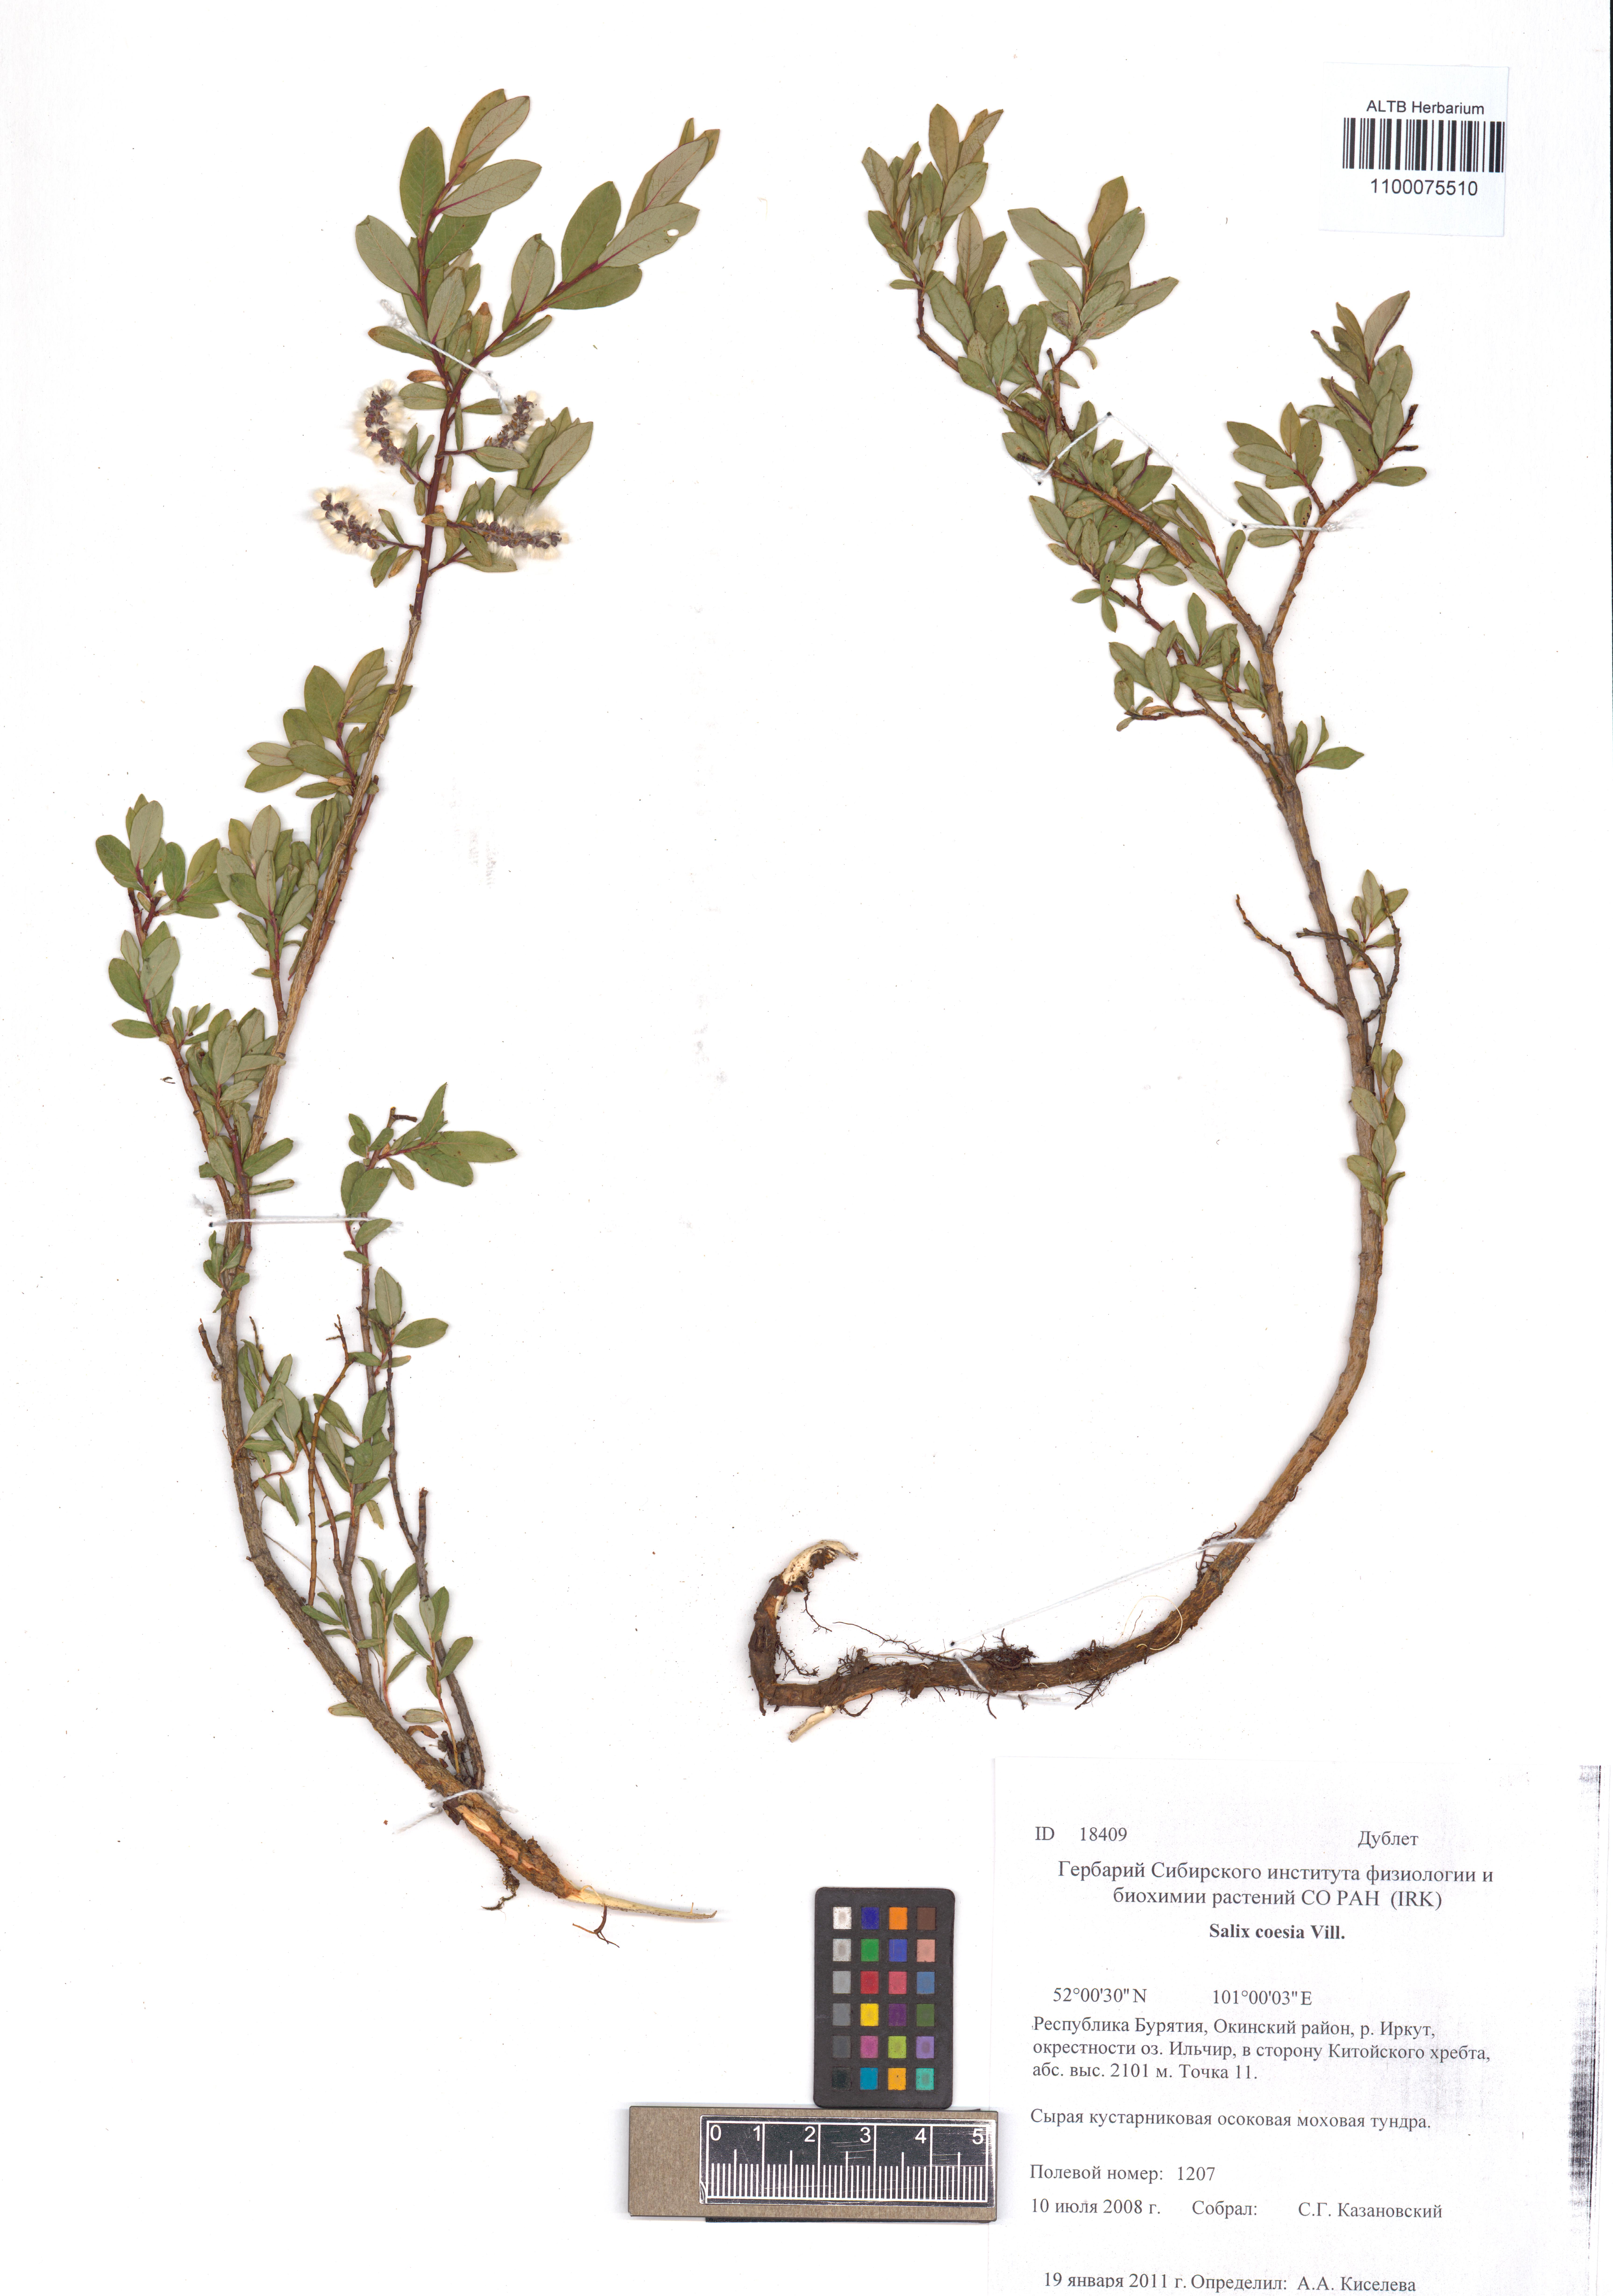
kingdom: Plantae
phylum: Tracheophyta
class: Magnoliopsida
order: Malpighiales
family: Salicaceae
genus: Salix
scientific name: Salix caesia
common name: Blue willow
